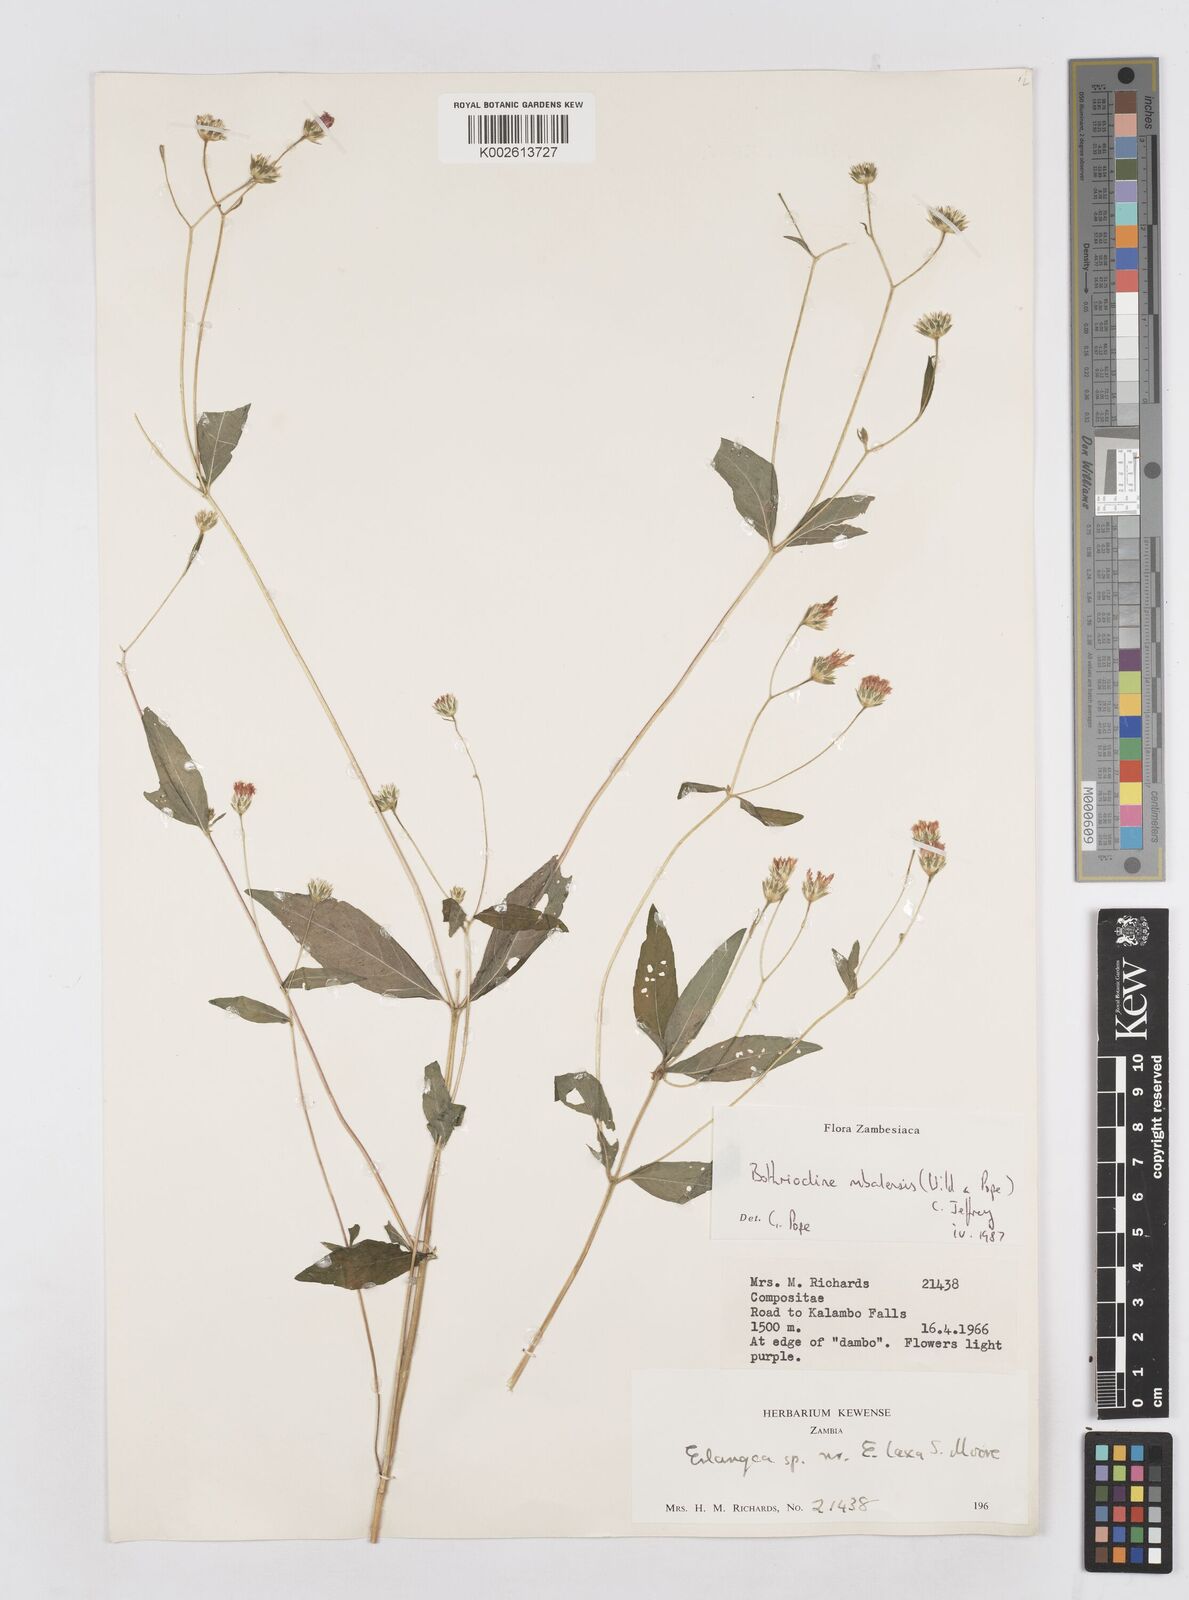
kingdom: Plantae
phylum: Tracheophyta
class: Magnoliopsida
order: Asterales
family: Asteraceae
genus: Bothriocline
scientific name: Bothriocline mbalensis
